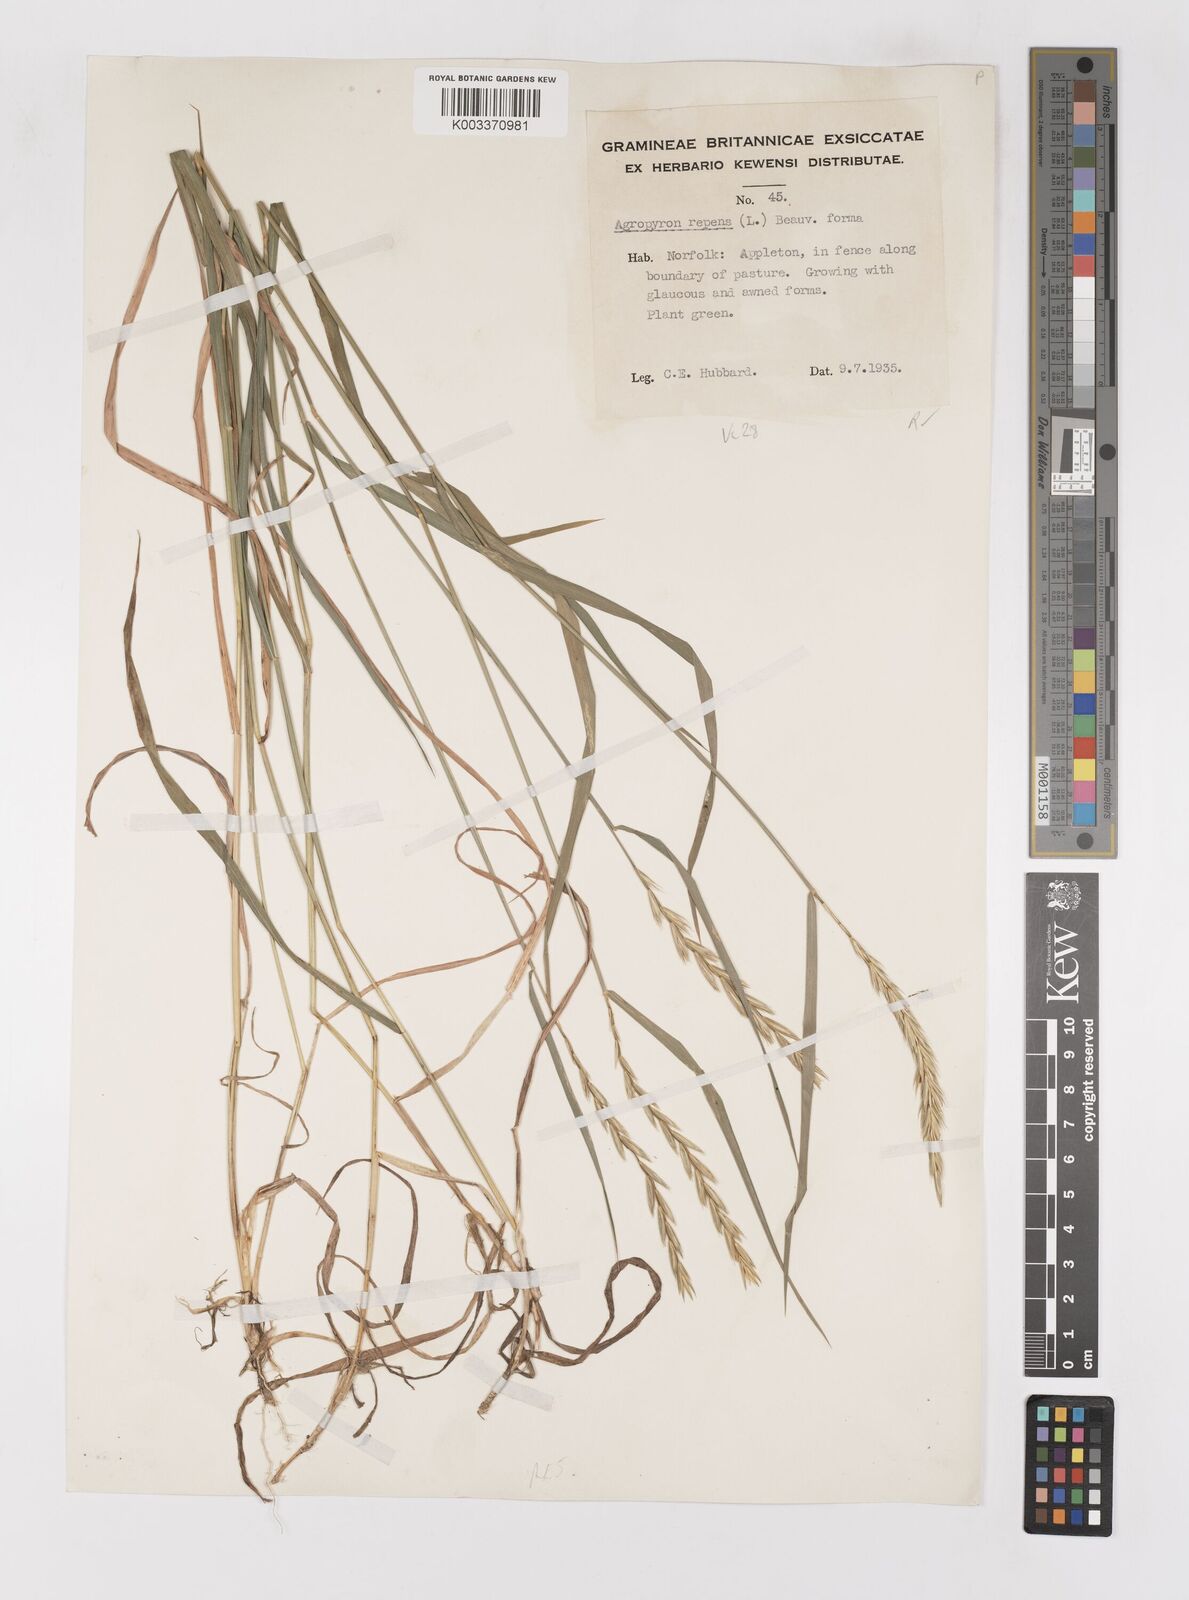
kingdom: Plantae
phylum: Tracheophyta
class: Liliopsida
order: Poales
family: Poaceae
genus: Elymus
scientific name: Elymus repens
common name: Quackgrass
